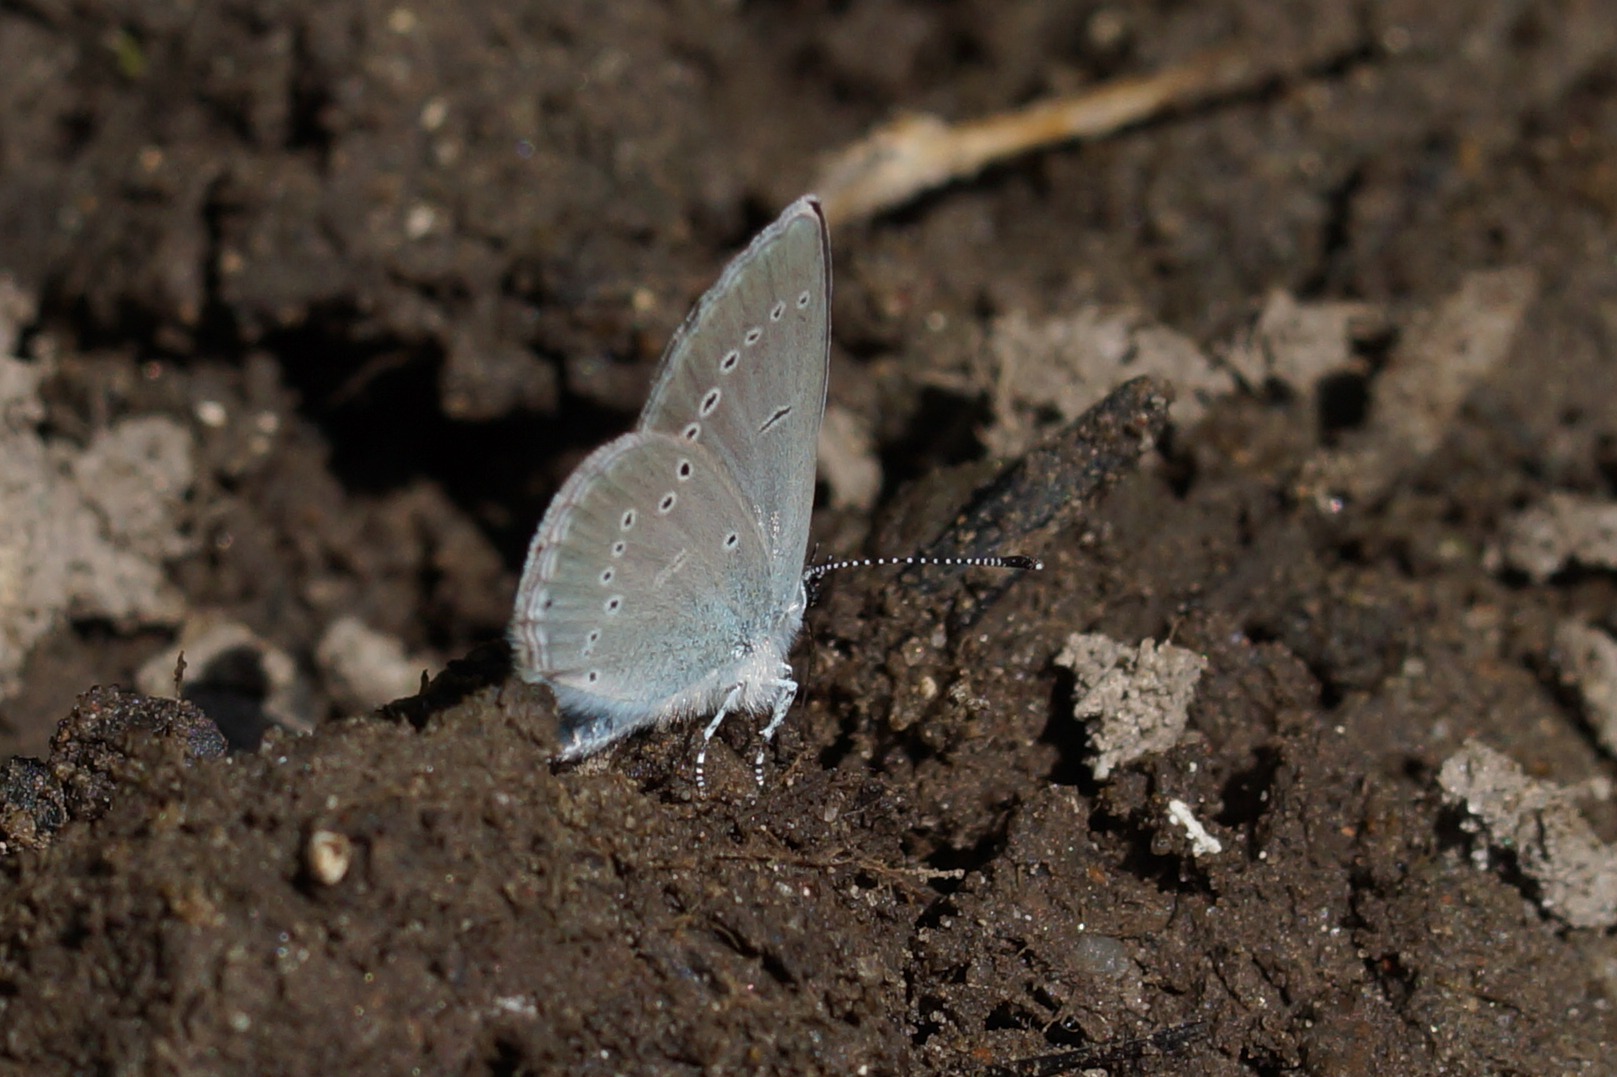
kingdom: Animalia
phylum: Arthropoda
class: Insecta
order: Lepidoptera
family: Lycaenidae
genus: Cupido
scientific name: Cupido minimus
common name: Dværgblåfugl
